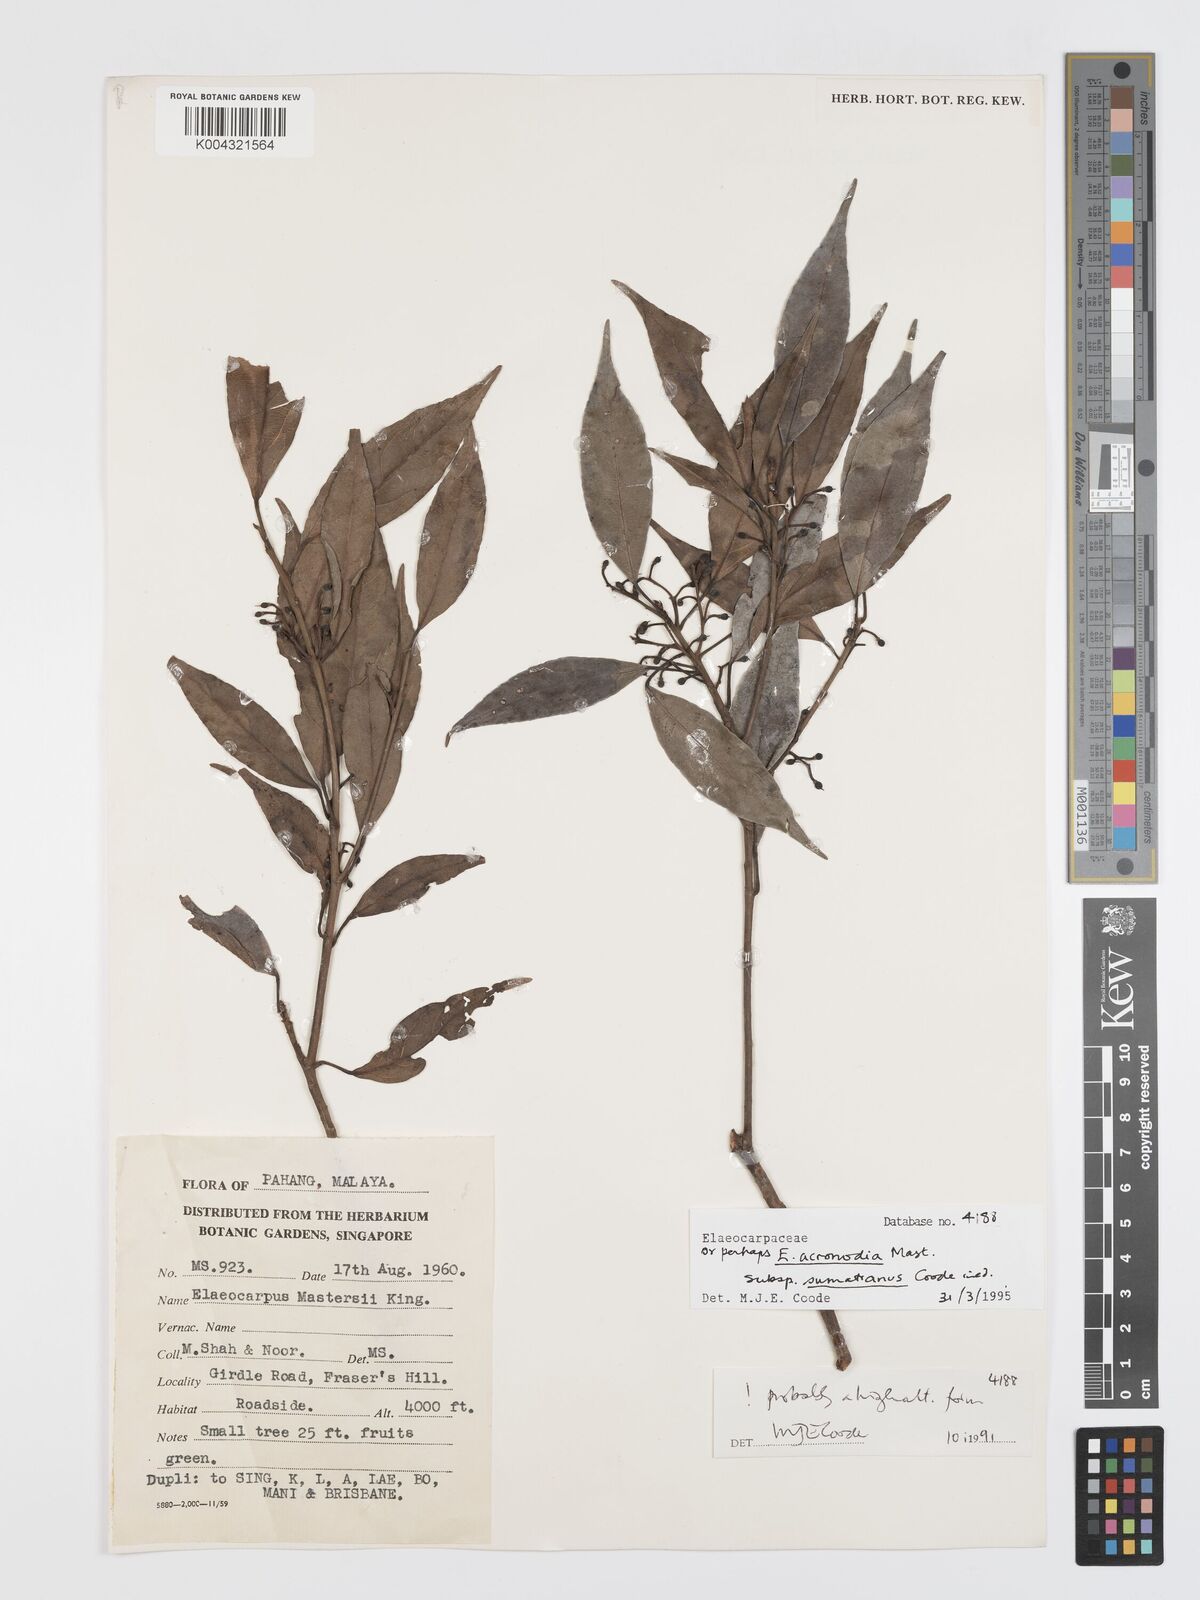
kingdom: Plantae
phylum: Tracheophyta
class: Magnoliopsida
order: Oxalidales
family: Elaeocarpaceae
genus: Elaeocarpus
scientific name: Elaeocarpus acronodia
